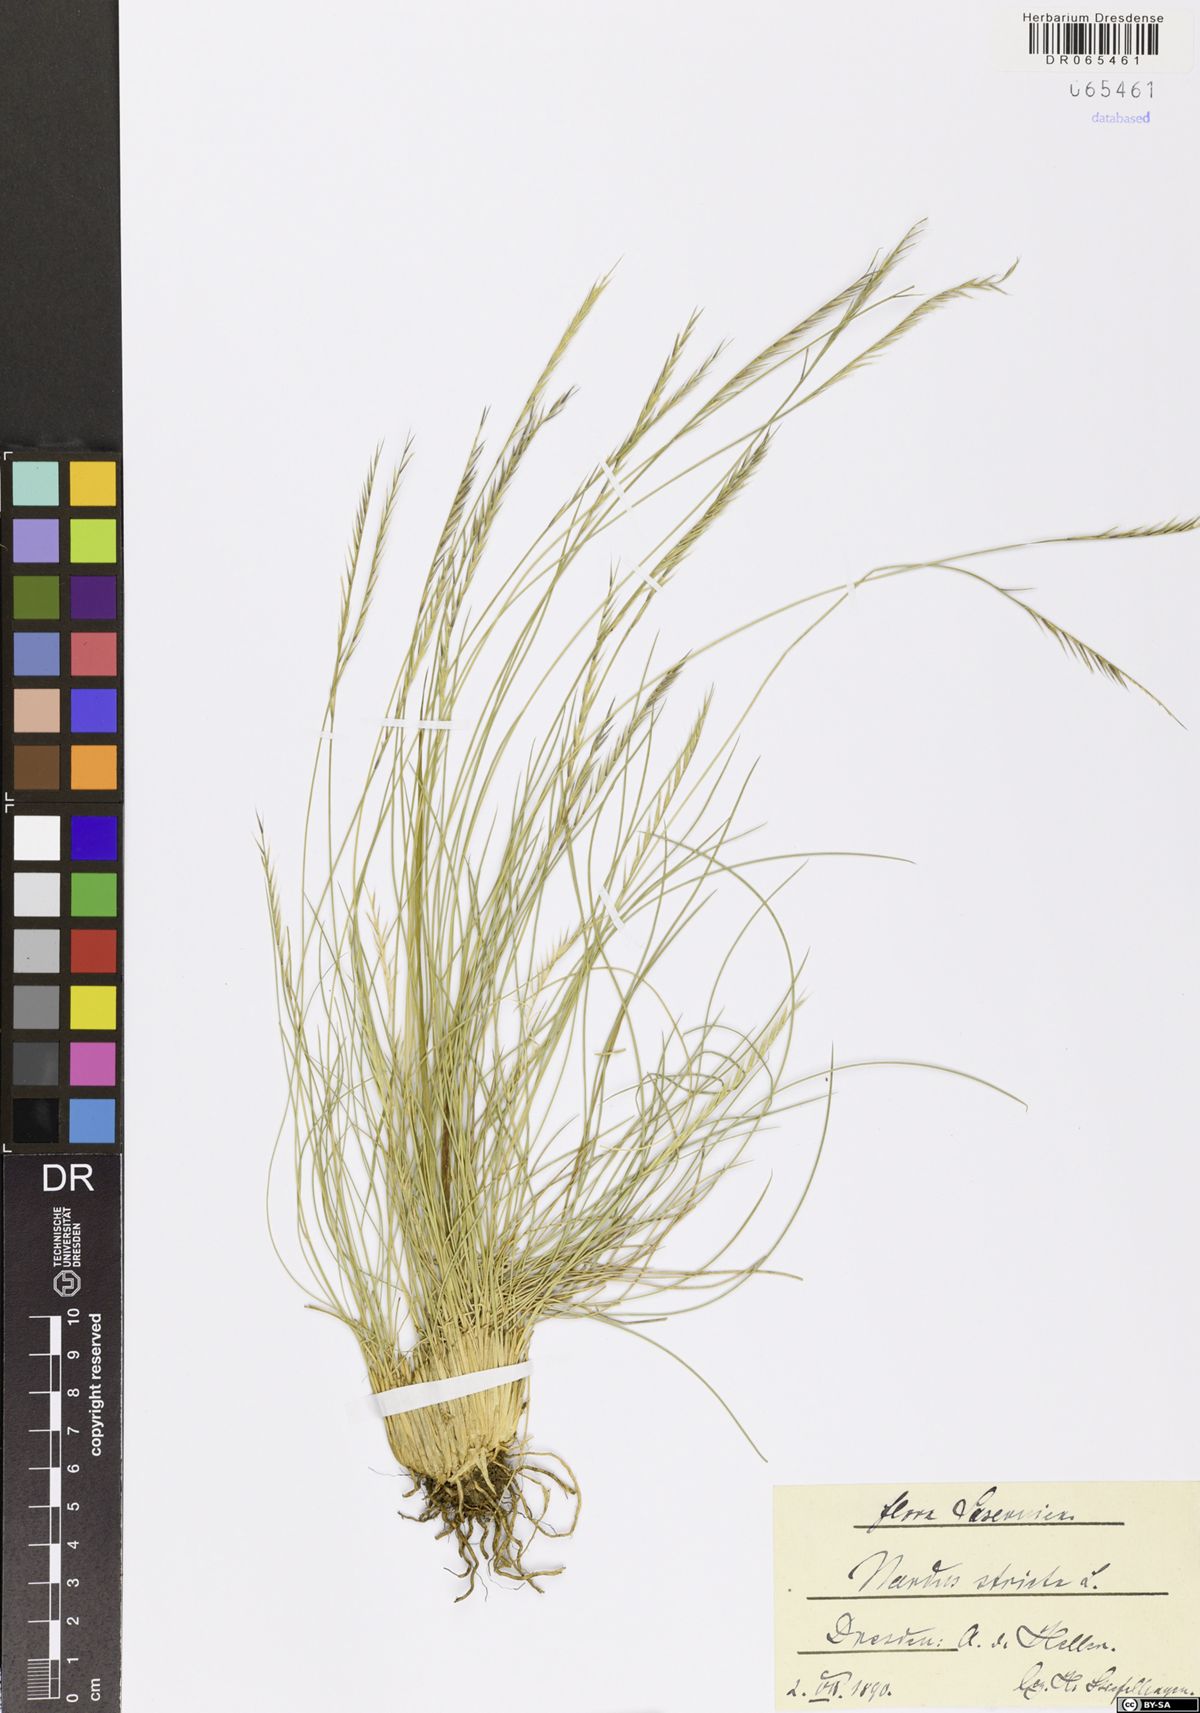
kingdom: Plantae
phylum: Tracheophyta
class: Liliopsida
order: Poales
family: Poaceae
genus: Nardus
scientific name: Nardus stricta
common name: Mat-grass
